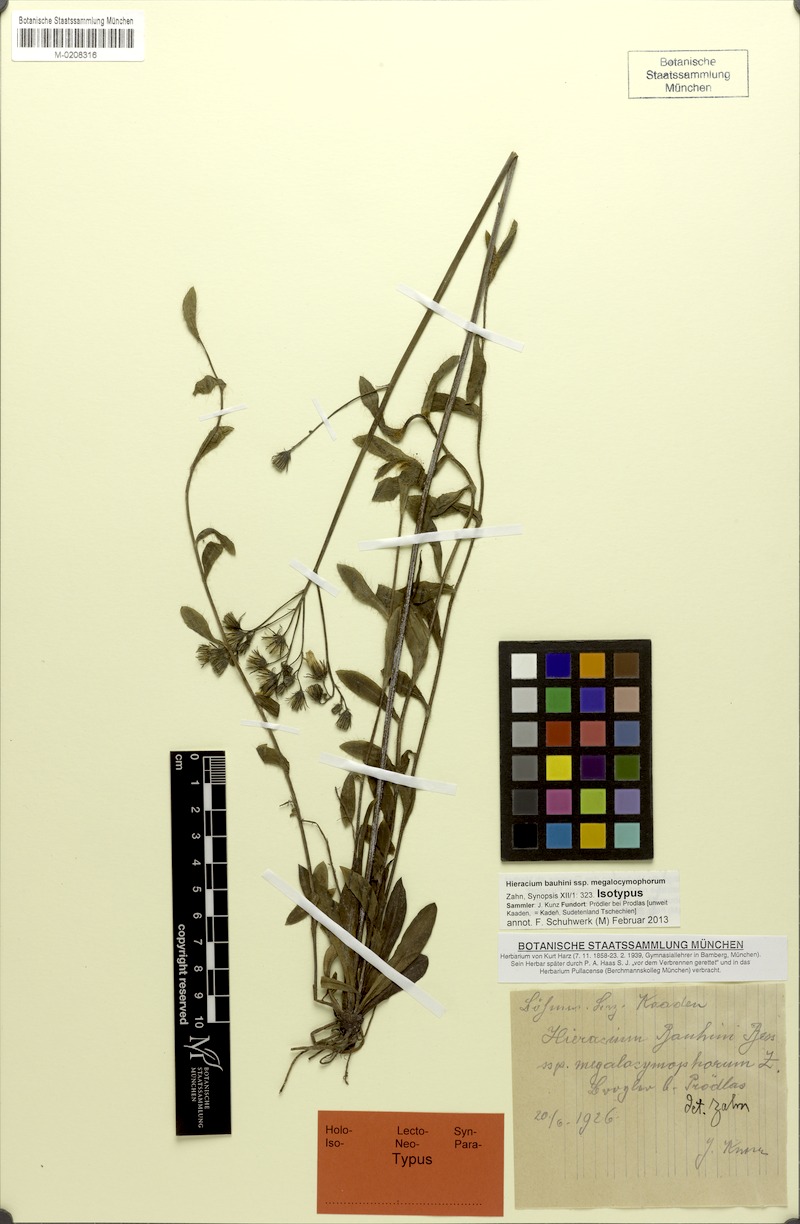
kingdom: Plantae
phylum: Tracheophyta
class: Magnoliopsida
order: Asterales
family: Asteraceae
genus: Pilosella
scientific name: Pilosella bauhini
